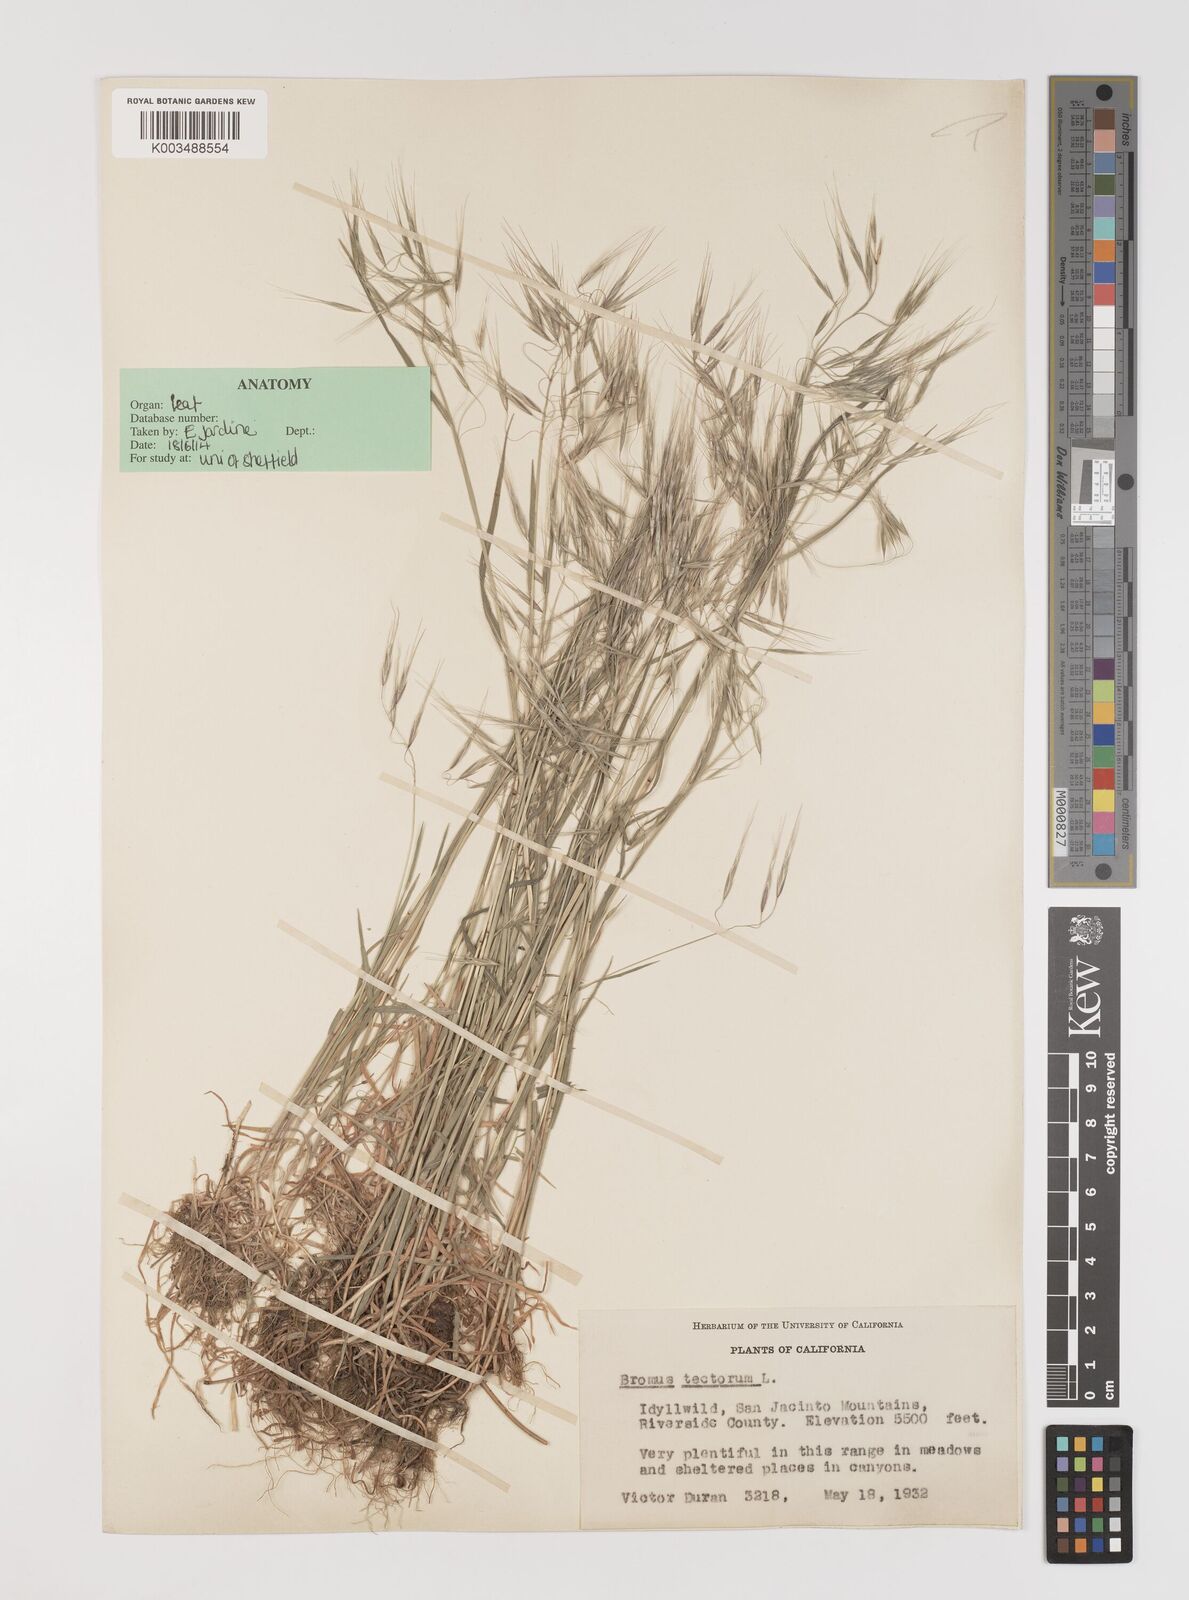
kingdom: Plantae
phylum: Tracheophyta
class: Liliopsida
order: Poales
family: Poaceae
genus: Bromus
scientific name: Bromus tectorum
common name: Cheatgrass
